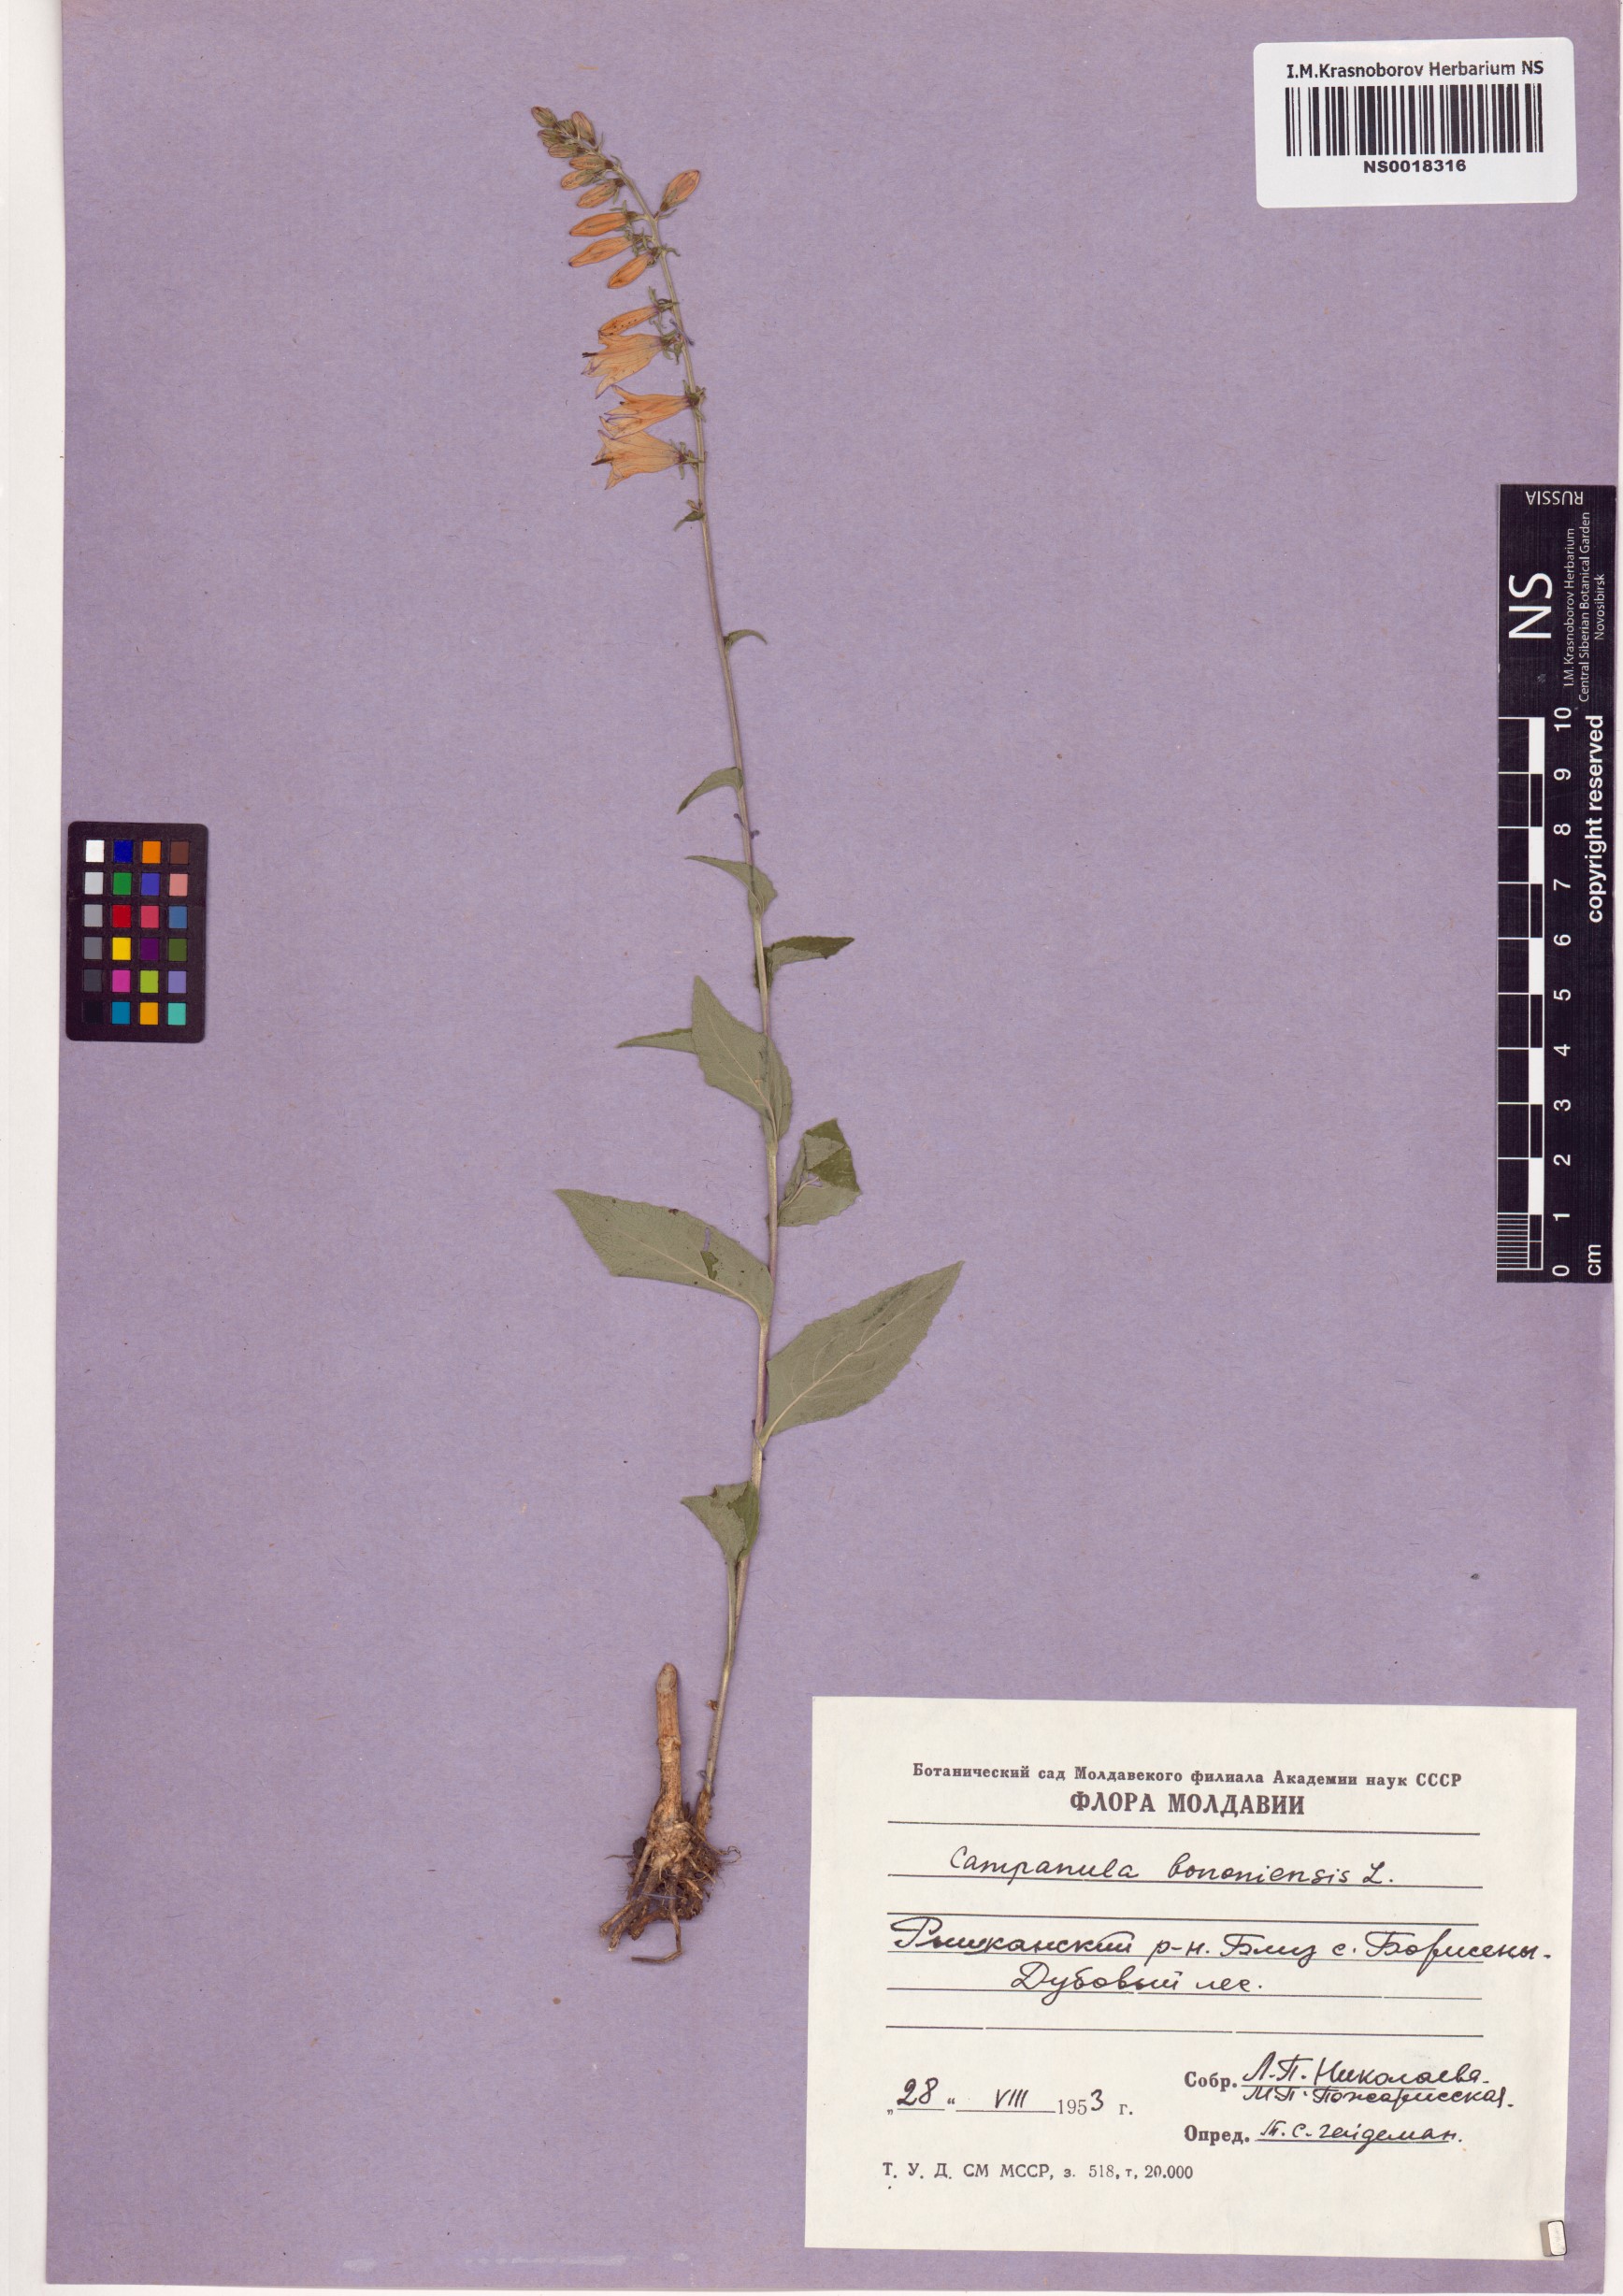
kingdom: Plantae
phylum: Tracheophyta
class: Magnoliopsida
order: Asterales
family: Campanulaceae
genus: Campanula
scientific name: Campanula bononiensis
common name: Pale bellflower
